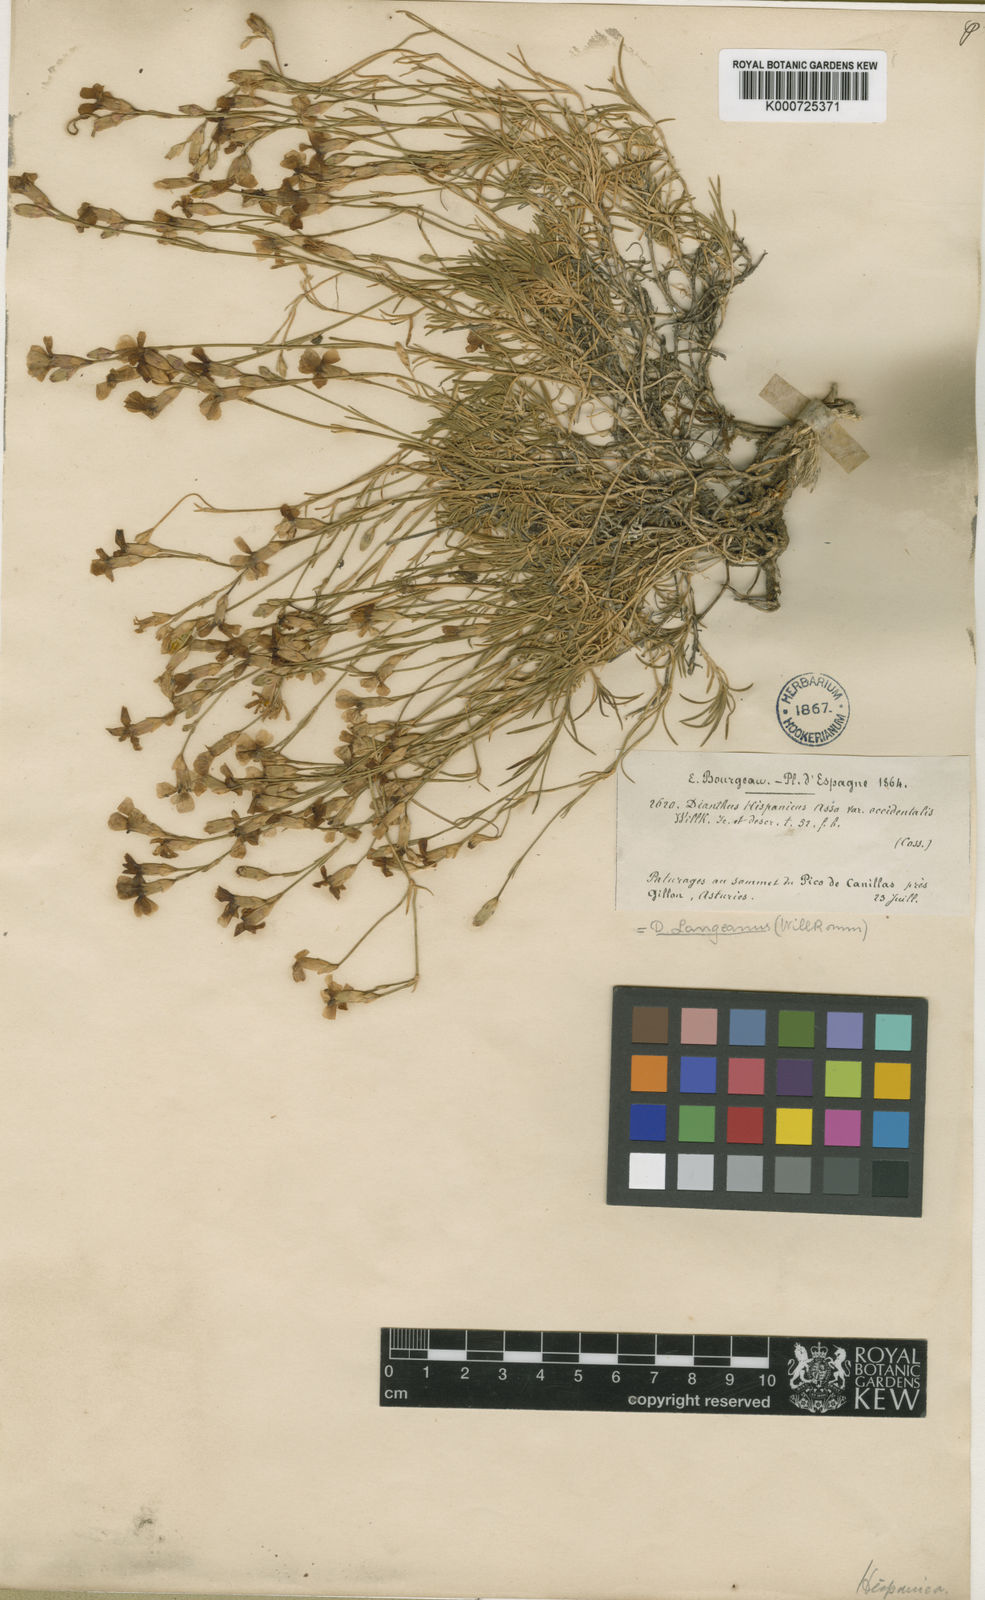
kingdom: Plantae
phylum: Tracheophyta
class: Magnoliopsida
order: Caryophyllales
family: Caryophyllaceae
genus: Dianthus
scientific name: Dianthus langeanus
